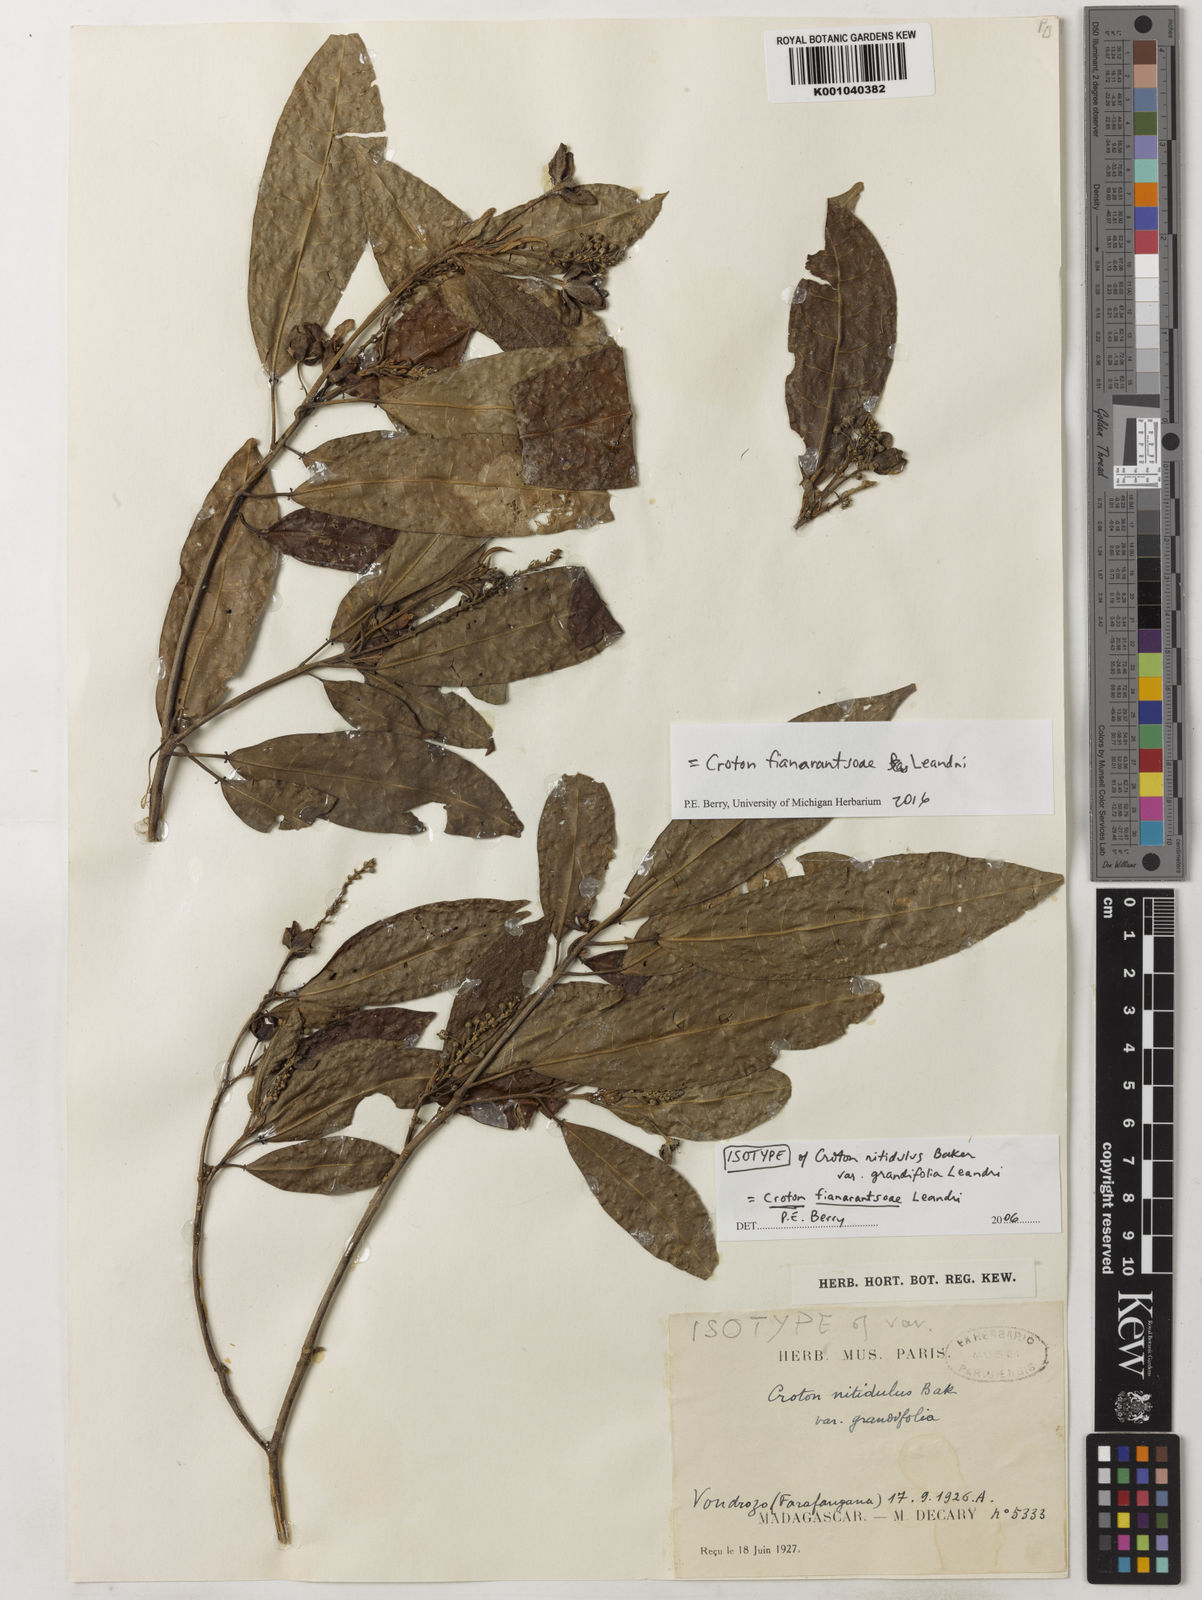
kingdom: Plantae
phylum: Tracheophyta
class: Magnoliopsida
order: Malpighiales
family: Euphorbiaceae
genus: Croton
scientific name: Croton fianarantsoae
